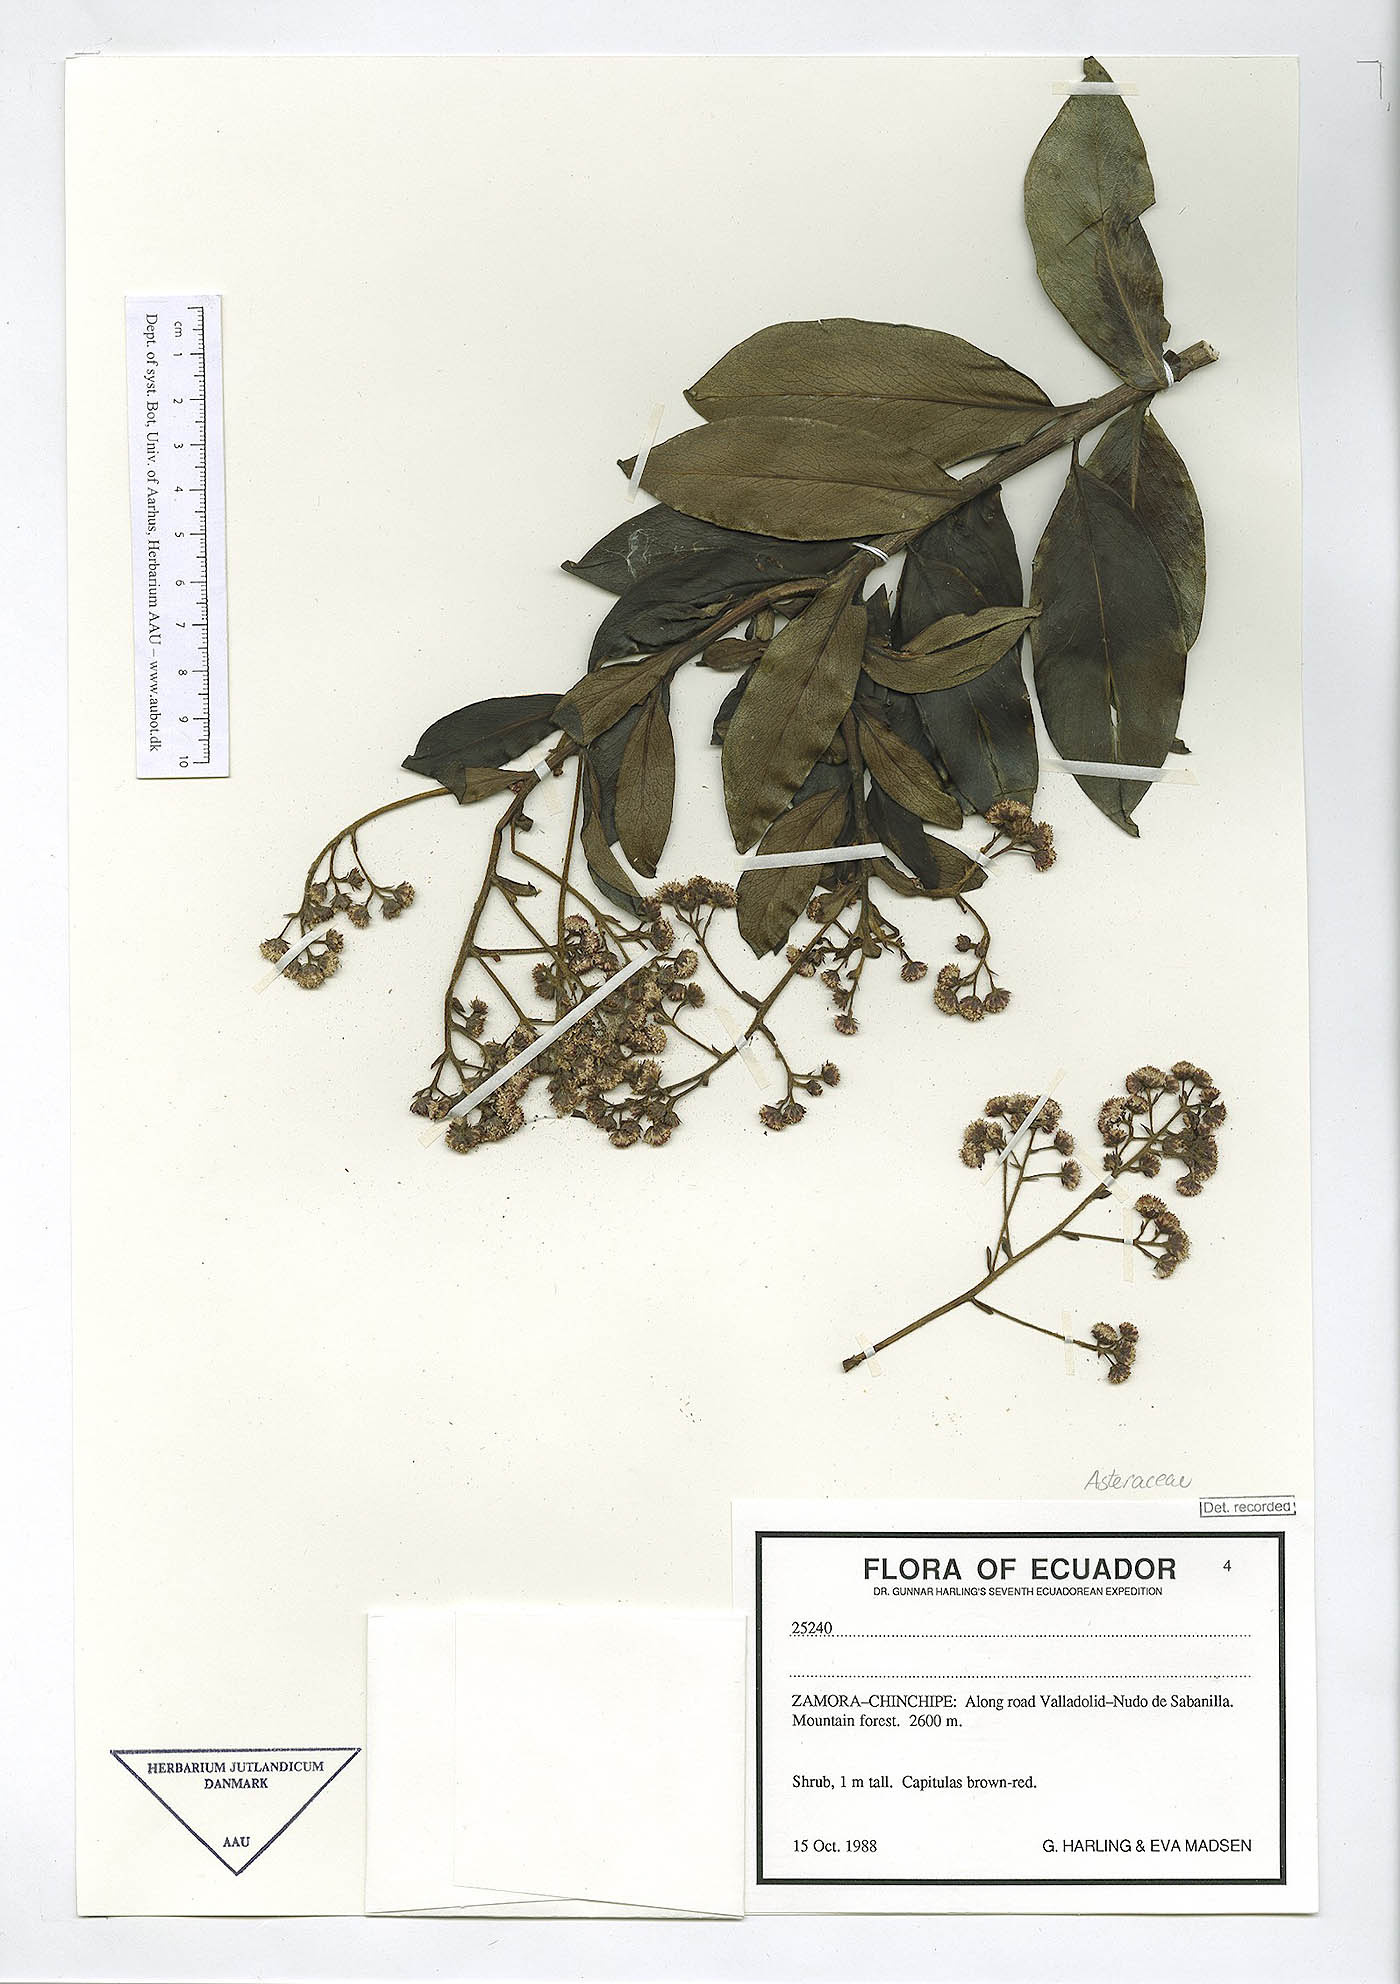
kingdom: Plantae
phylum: Tracheophyta
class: Magnoliopsida
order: Asterales
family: Asteraceae
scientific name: Asteraceae
